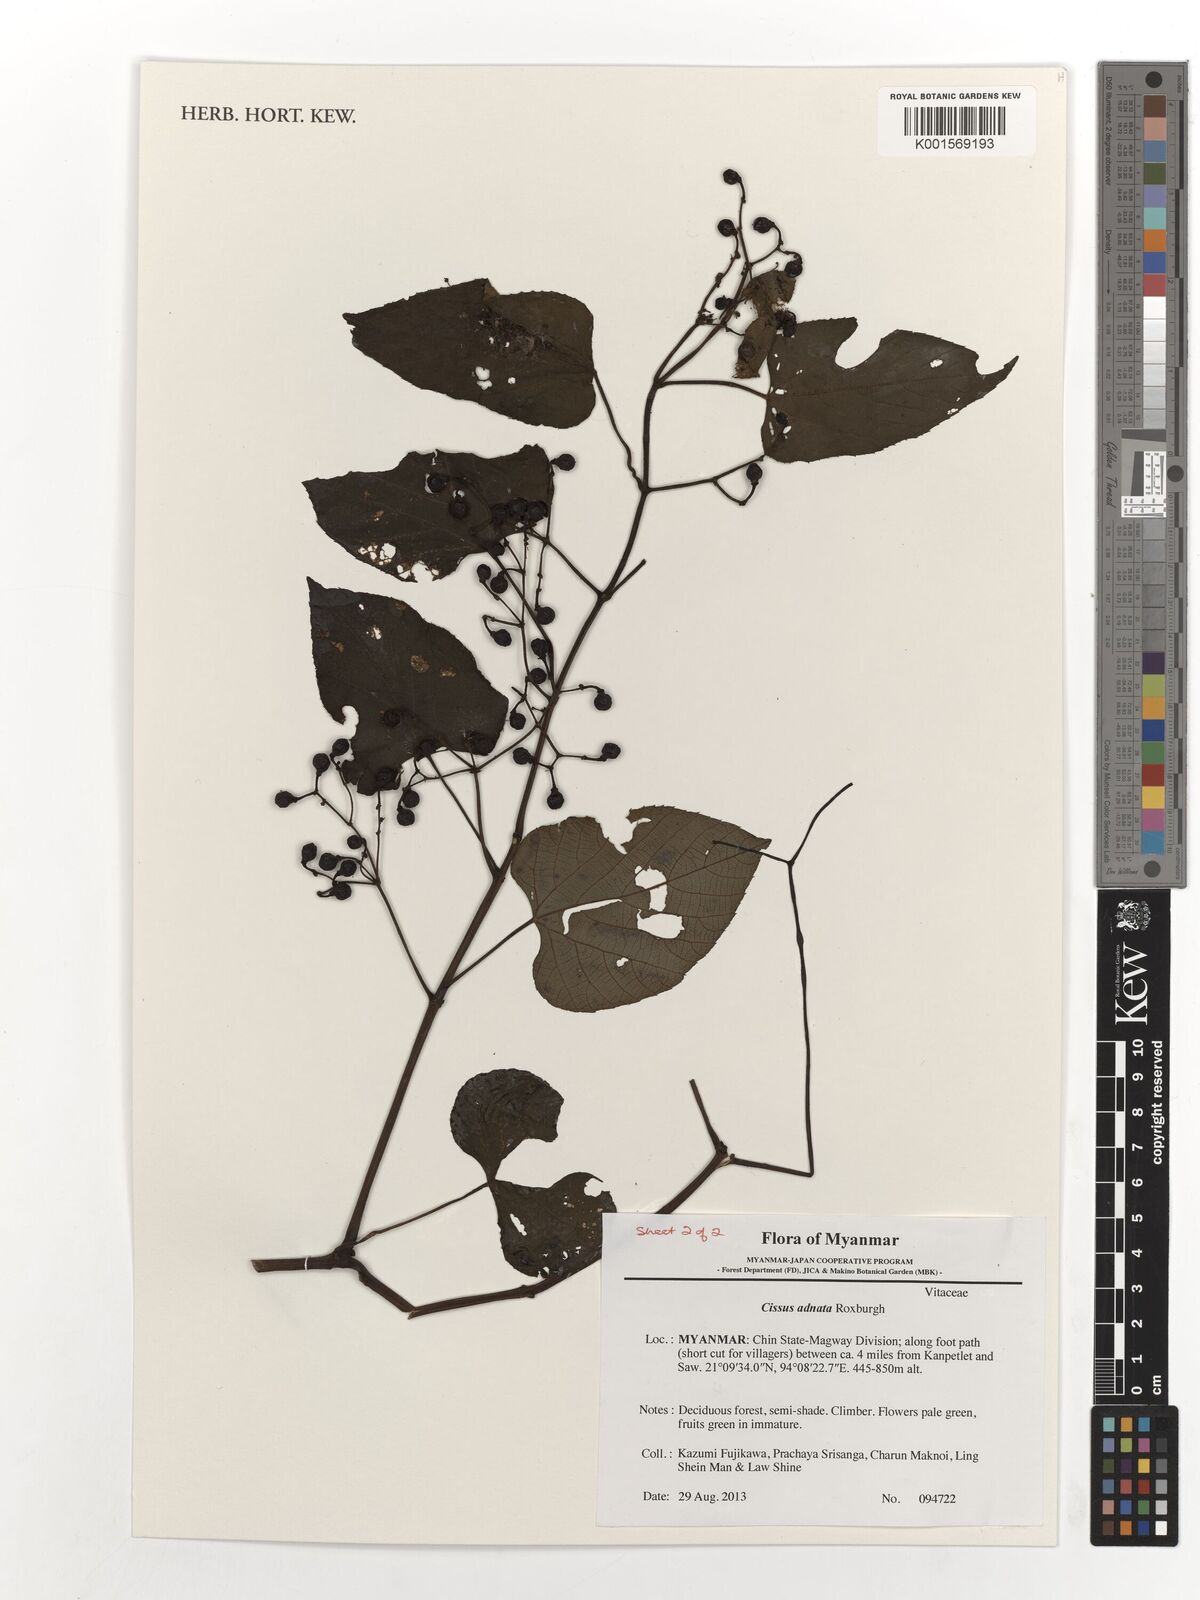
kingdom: Plantae
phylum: Tracheophyta
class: Magnoliopsida
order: Vitales
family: Vitaceae
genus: Cissus
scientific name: Cissus adnata
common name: Heart-leaf-grape
